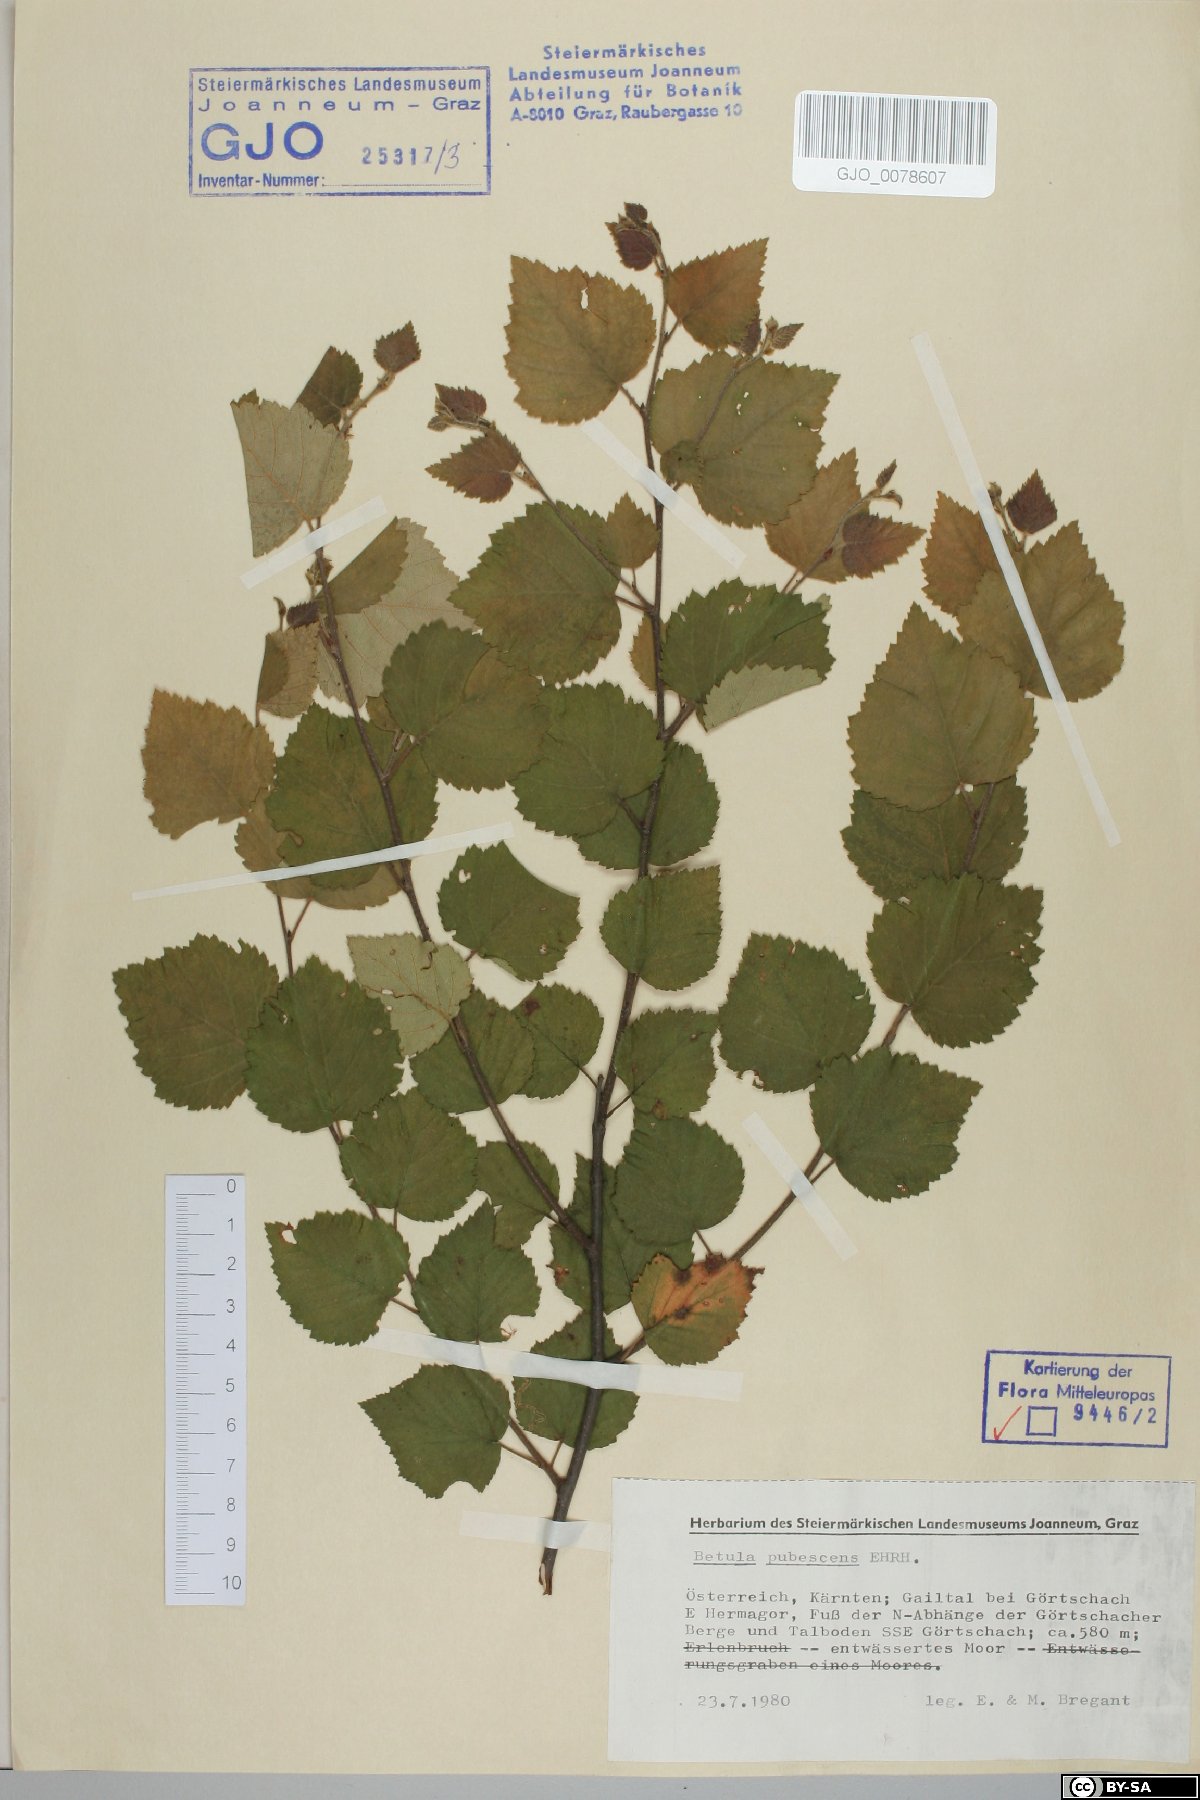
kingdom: Plantae
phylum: Tracheophyta
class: Magnoliopsida
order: Fagales
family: Betulaceae
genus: Betula
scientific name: Betula pubescens
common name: Downy birch
